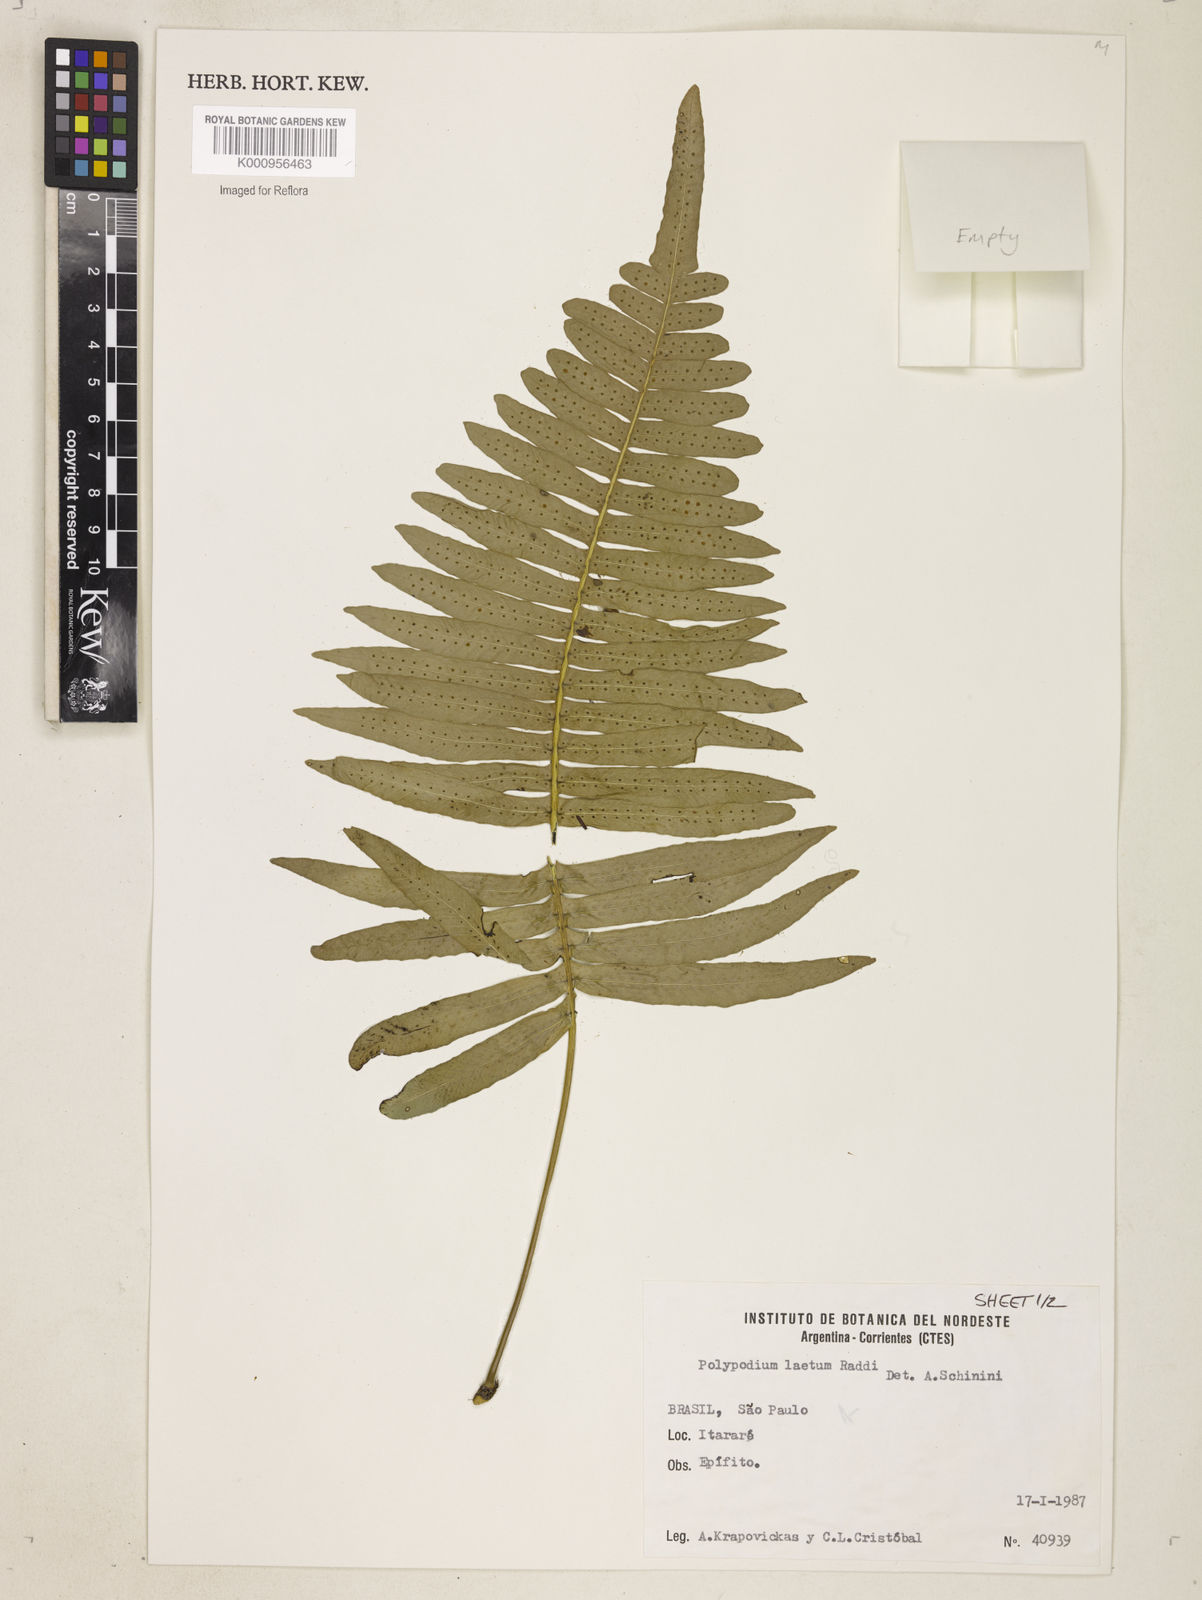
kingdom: Plantae
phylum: Tracheophyta
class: Polypodiopsida
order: Polypodiales
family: Polypodiaceae
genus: Polypodium
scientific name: Polypodium
